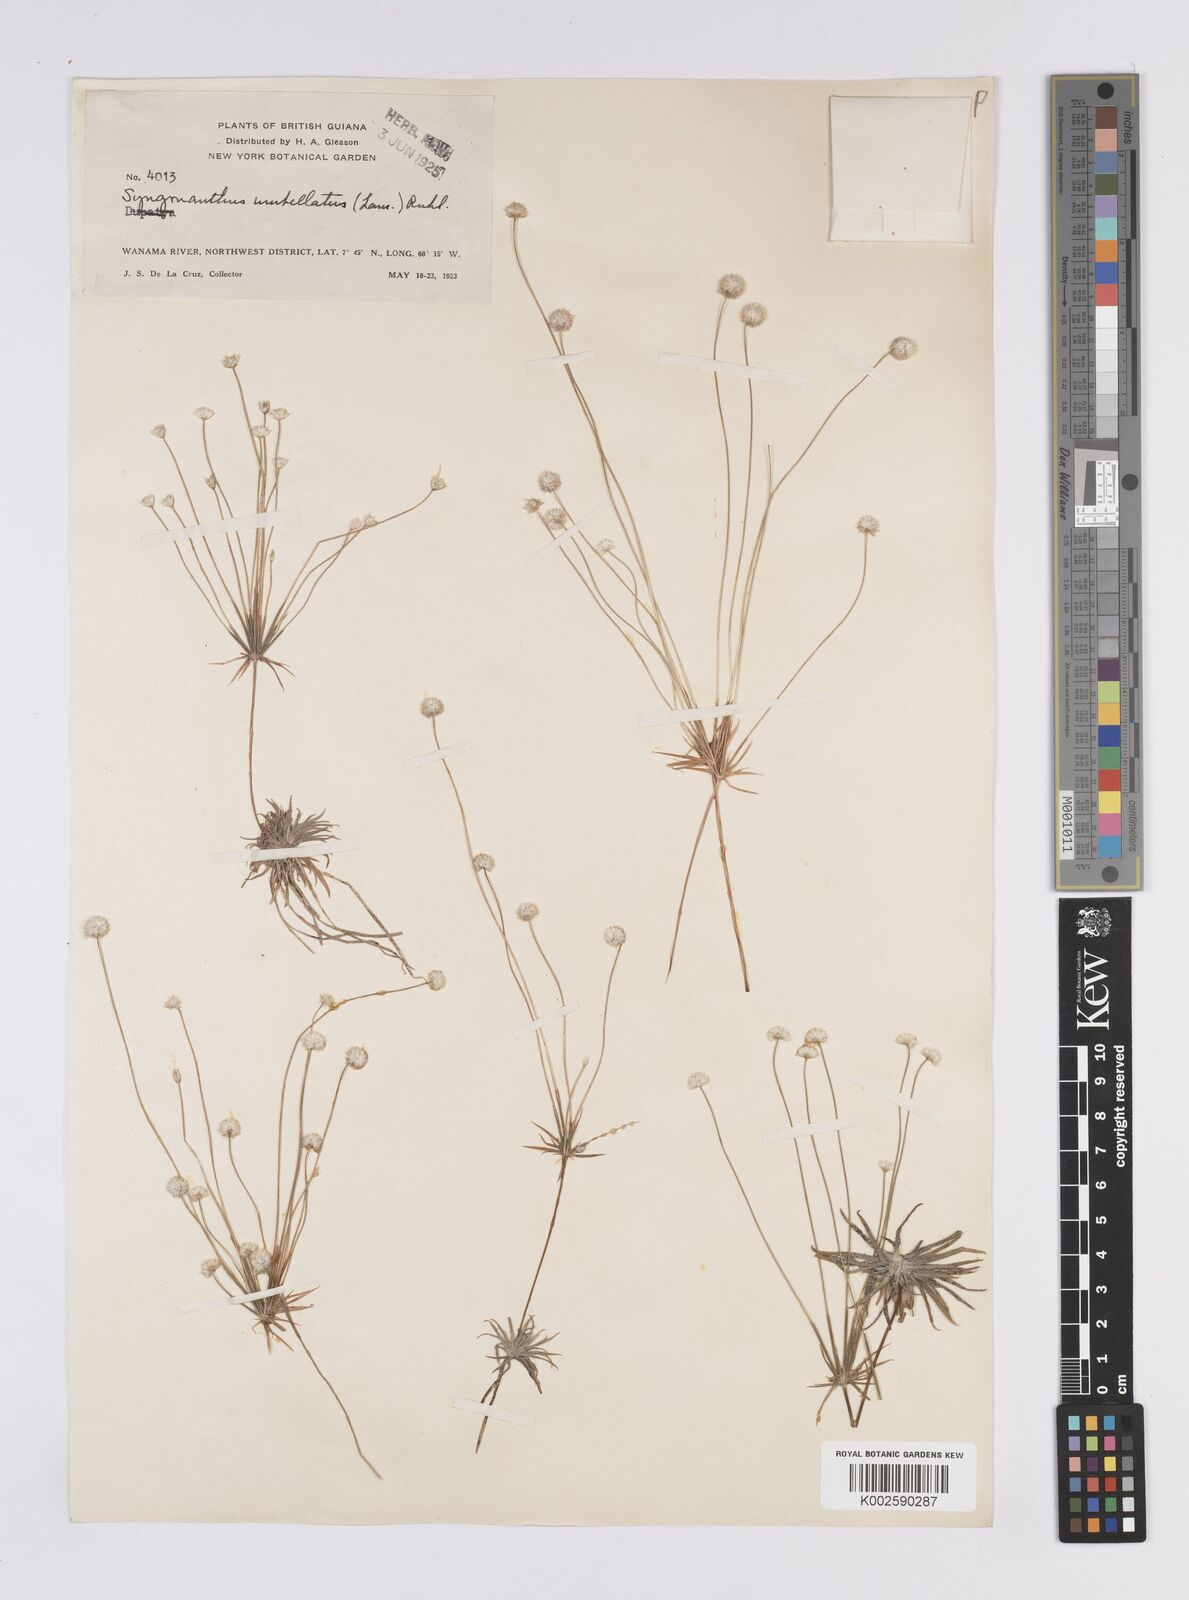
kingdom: Plantae
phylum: Tracheophyta
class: Liliopsida
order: Poales
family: Eriocaulaceae
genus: Syngonanthus
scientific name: Syngonanthus umbellatus
